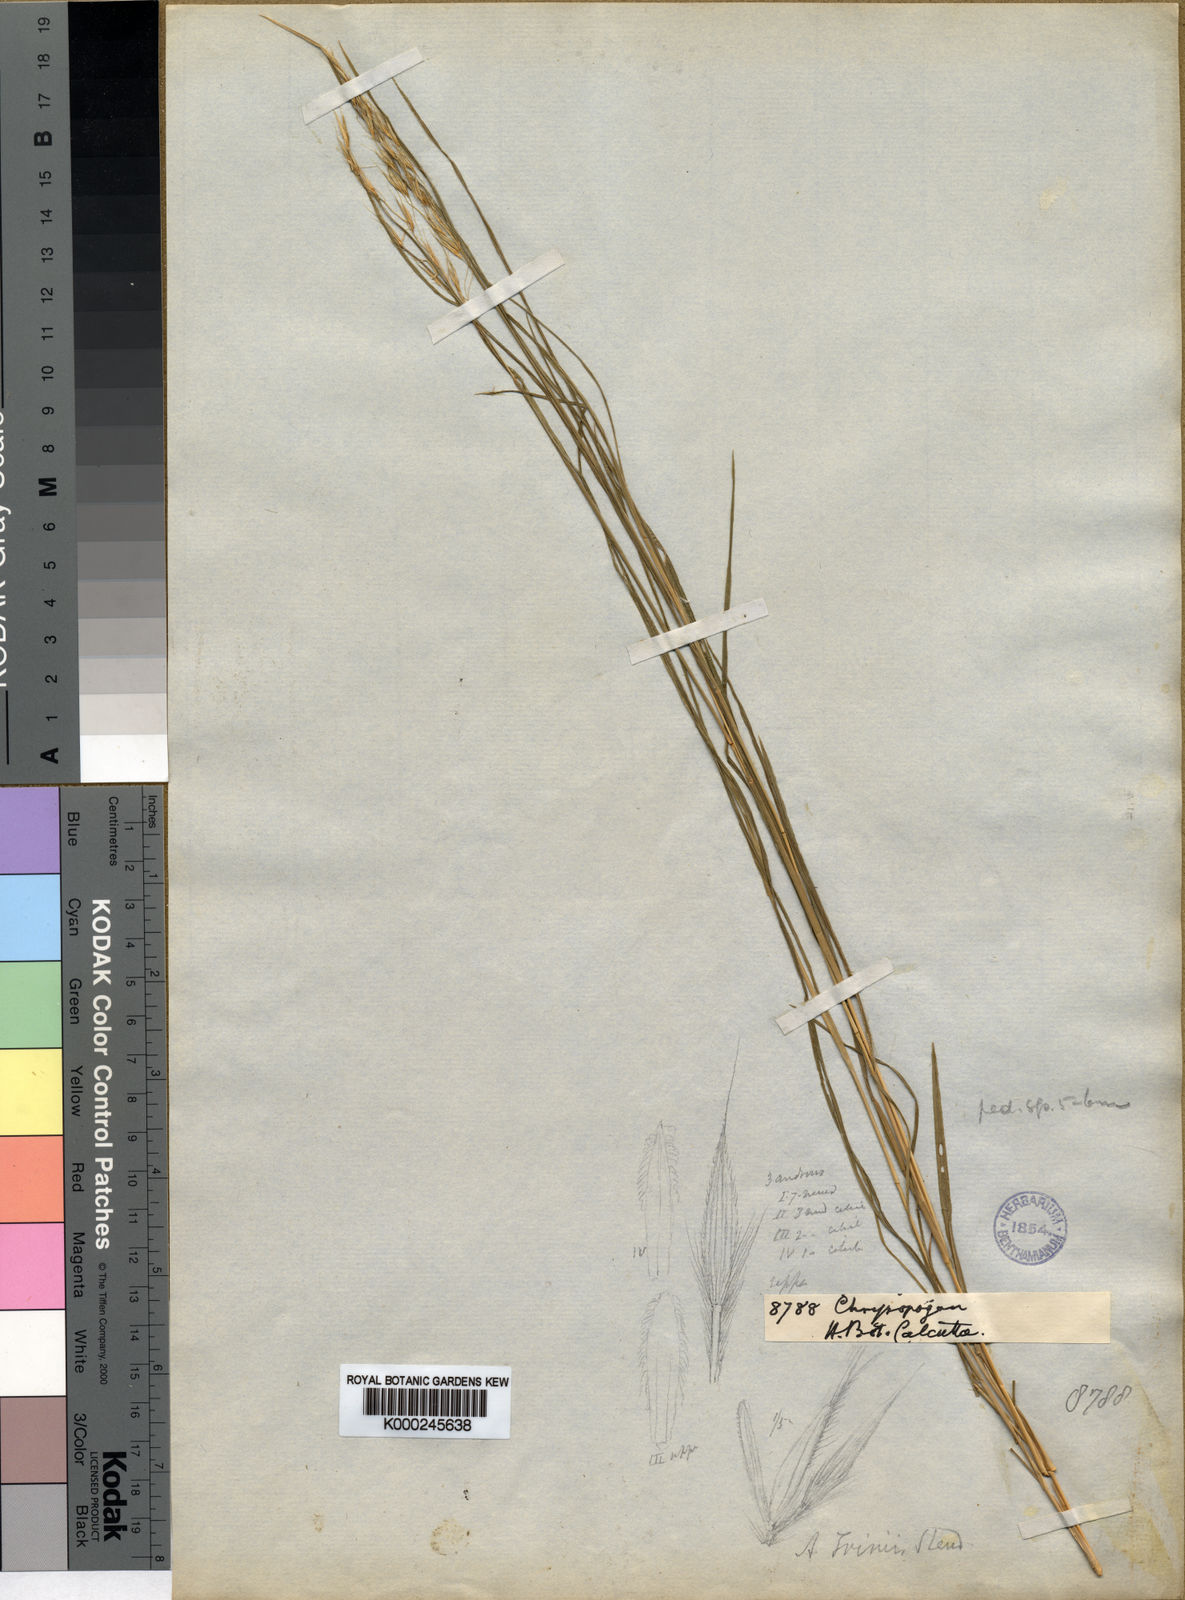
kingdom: Plantae
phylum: Tracheophyta
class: Liliopsida
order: Poales
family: Poaceae
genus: Chrysopogon
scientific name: Chrysopogon serrulatus
